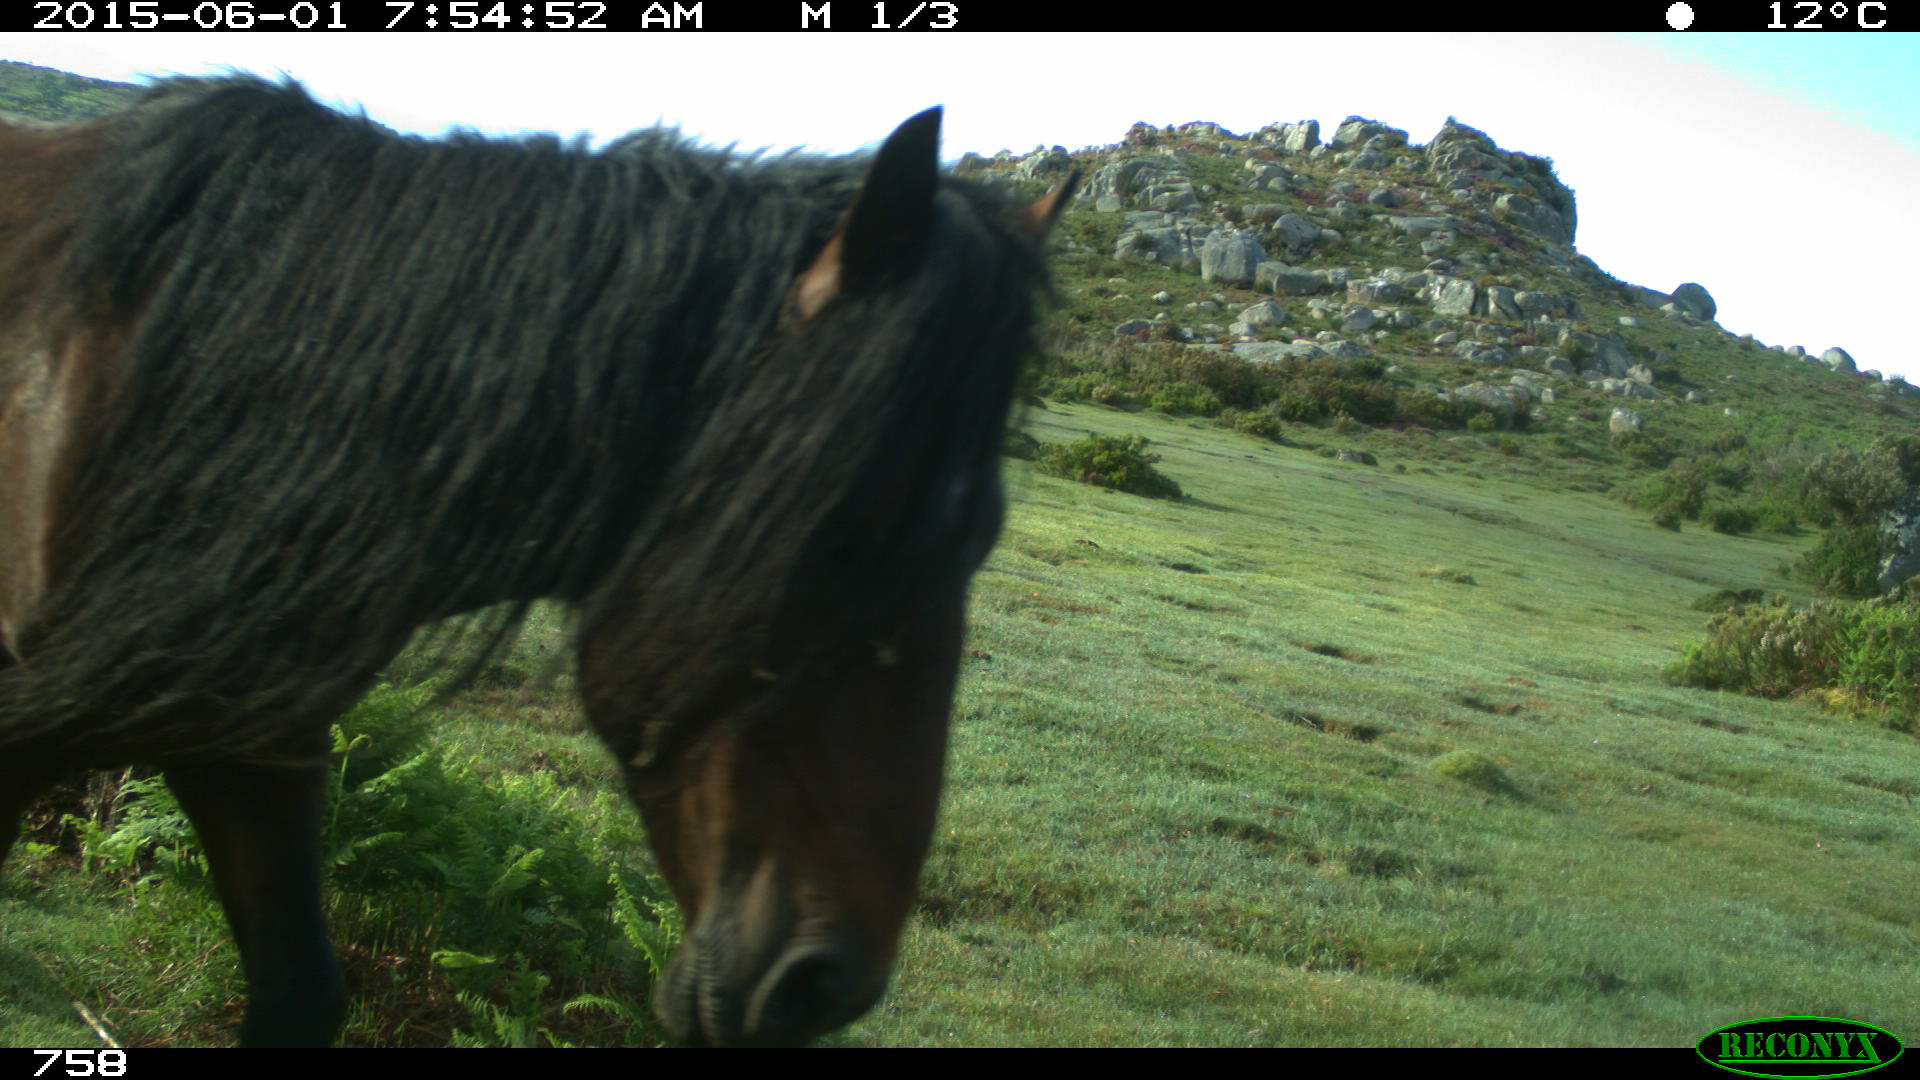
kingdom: Animalia
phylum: Chordata
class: Mammalia
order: Perissodactyla
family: Equidae
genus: Equus
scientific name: Equus caballus
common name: Horse
